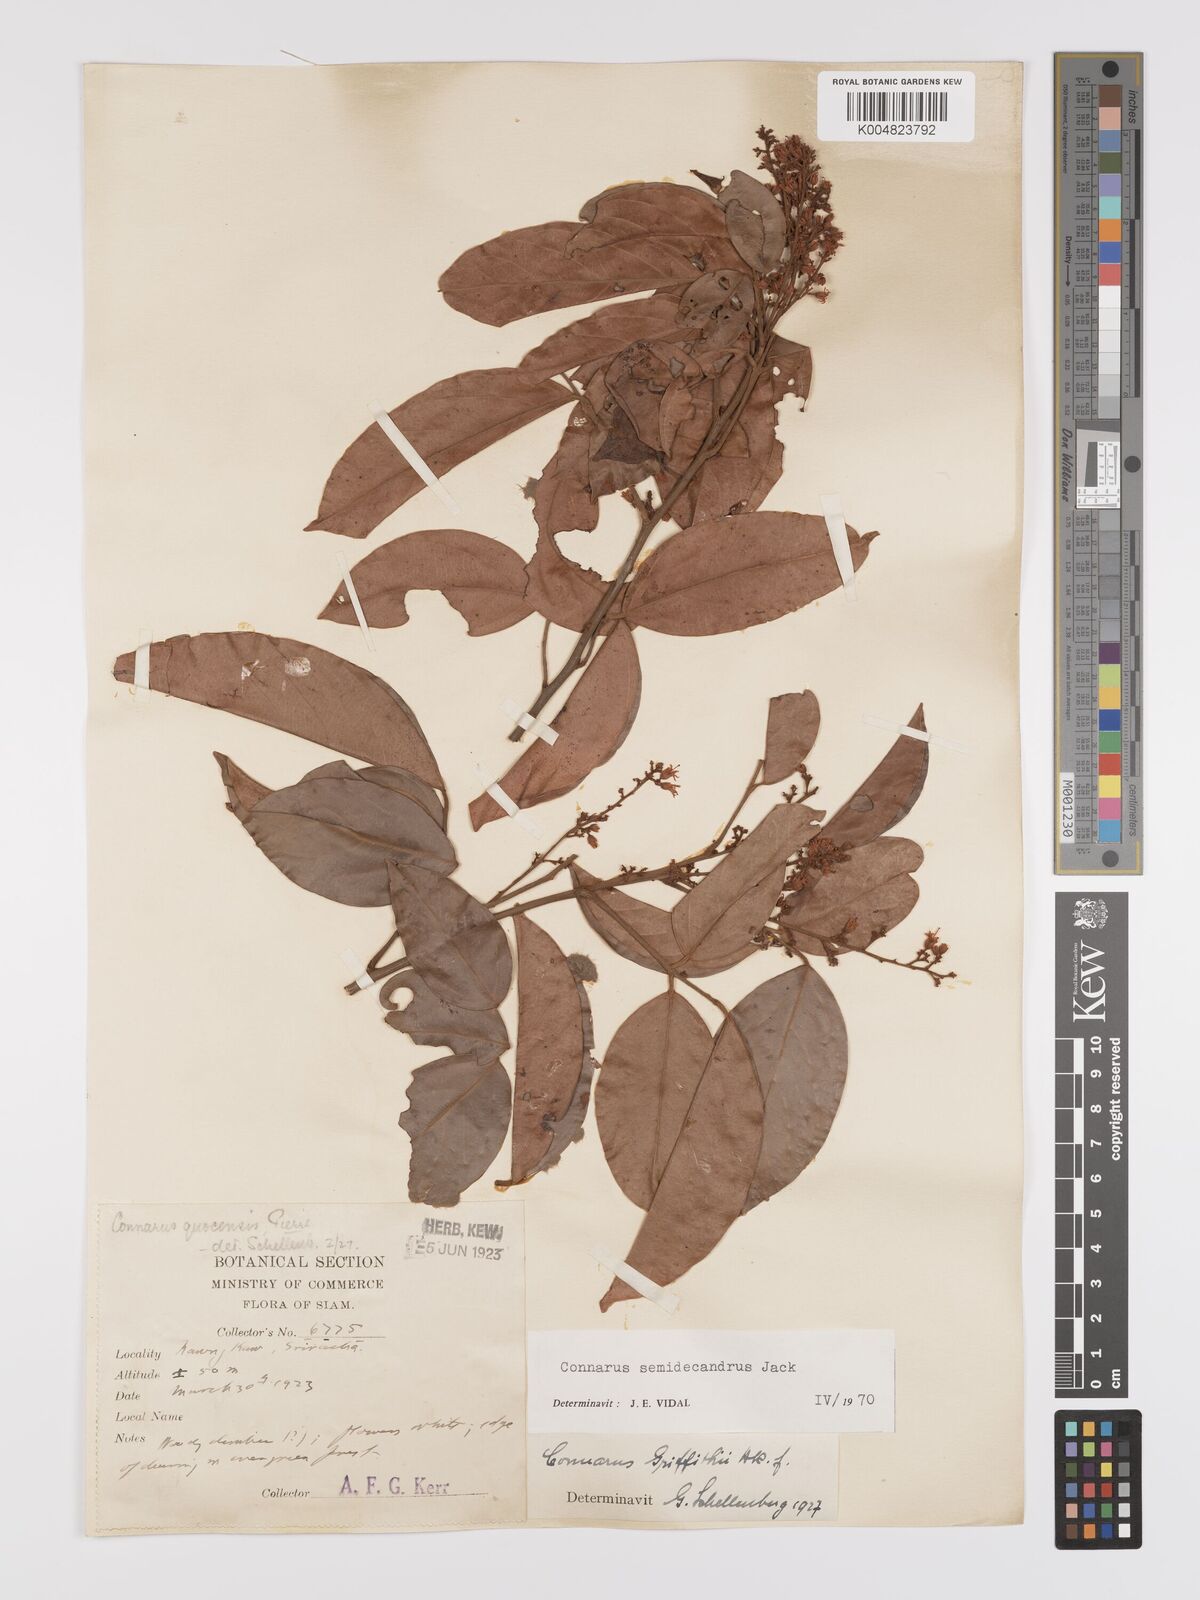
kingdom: Plantae
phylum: Tracheophyta
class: Magnoliopsida
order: Oxalidales
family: Connaraceae
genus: Connarus
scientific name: Connarus semidecandrus
